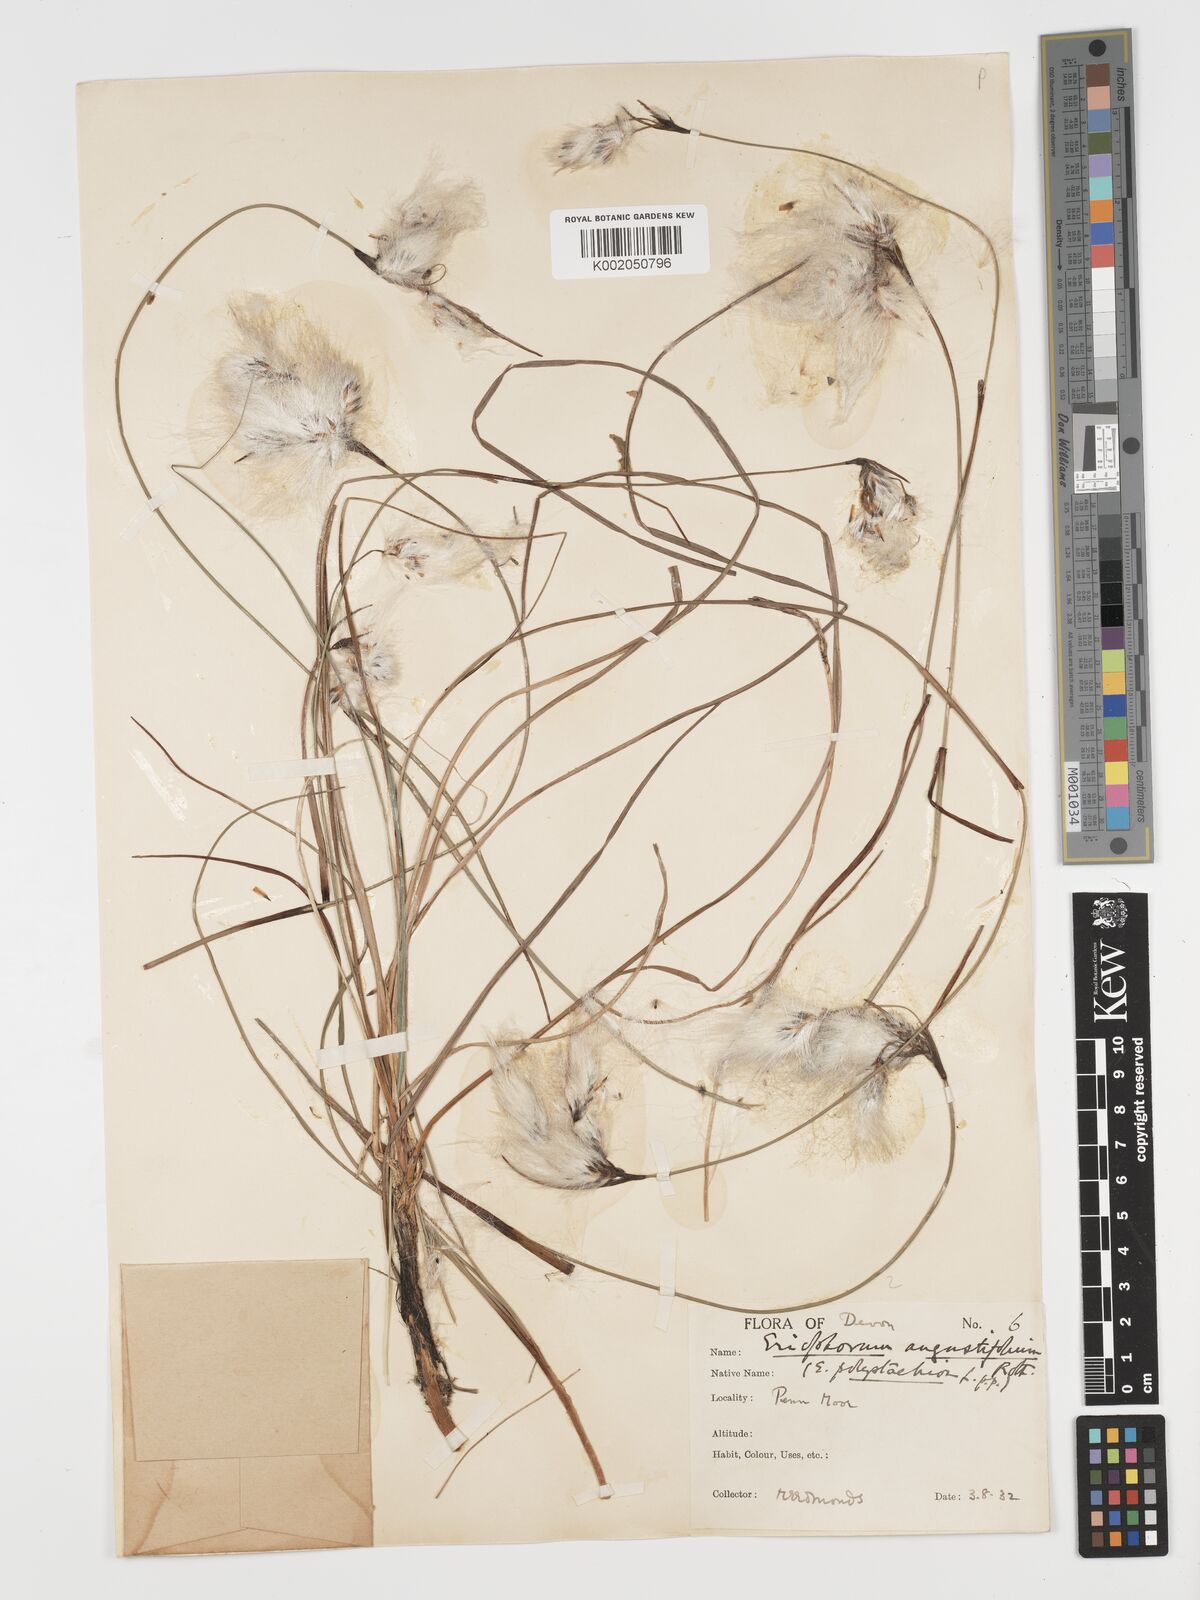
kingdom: Plantae
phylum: Tracheophyta
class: Liliopsida
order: Poales
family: Cyperaceae
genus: Eriophorum
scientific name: Eriophorum angustifolium
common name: Common cottongrass
